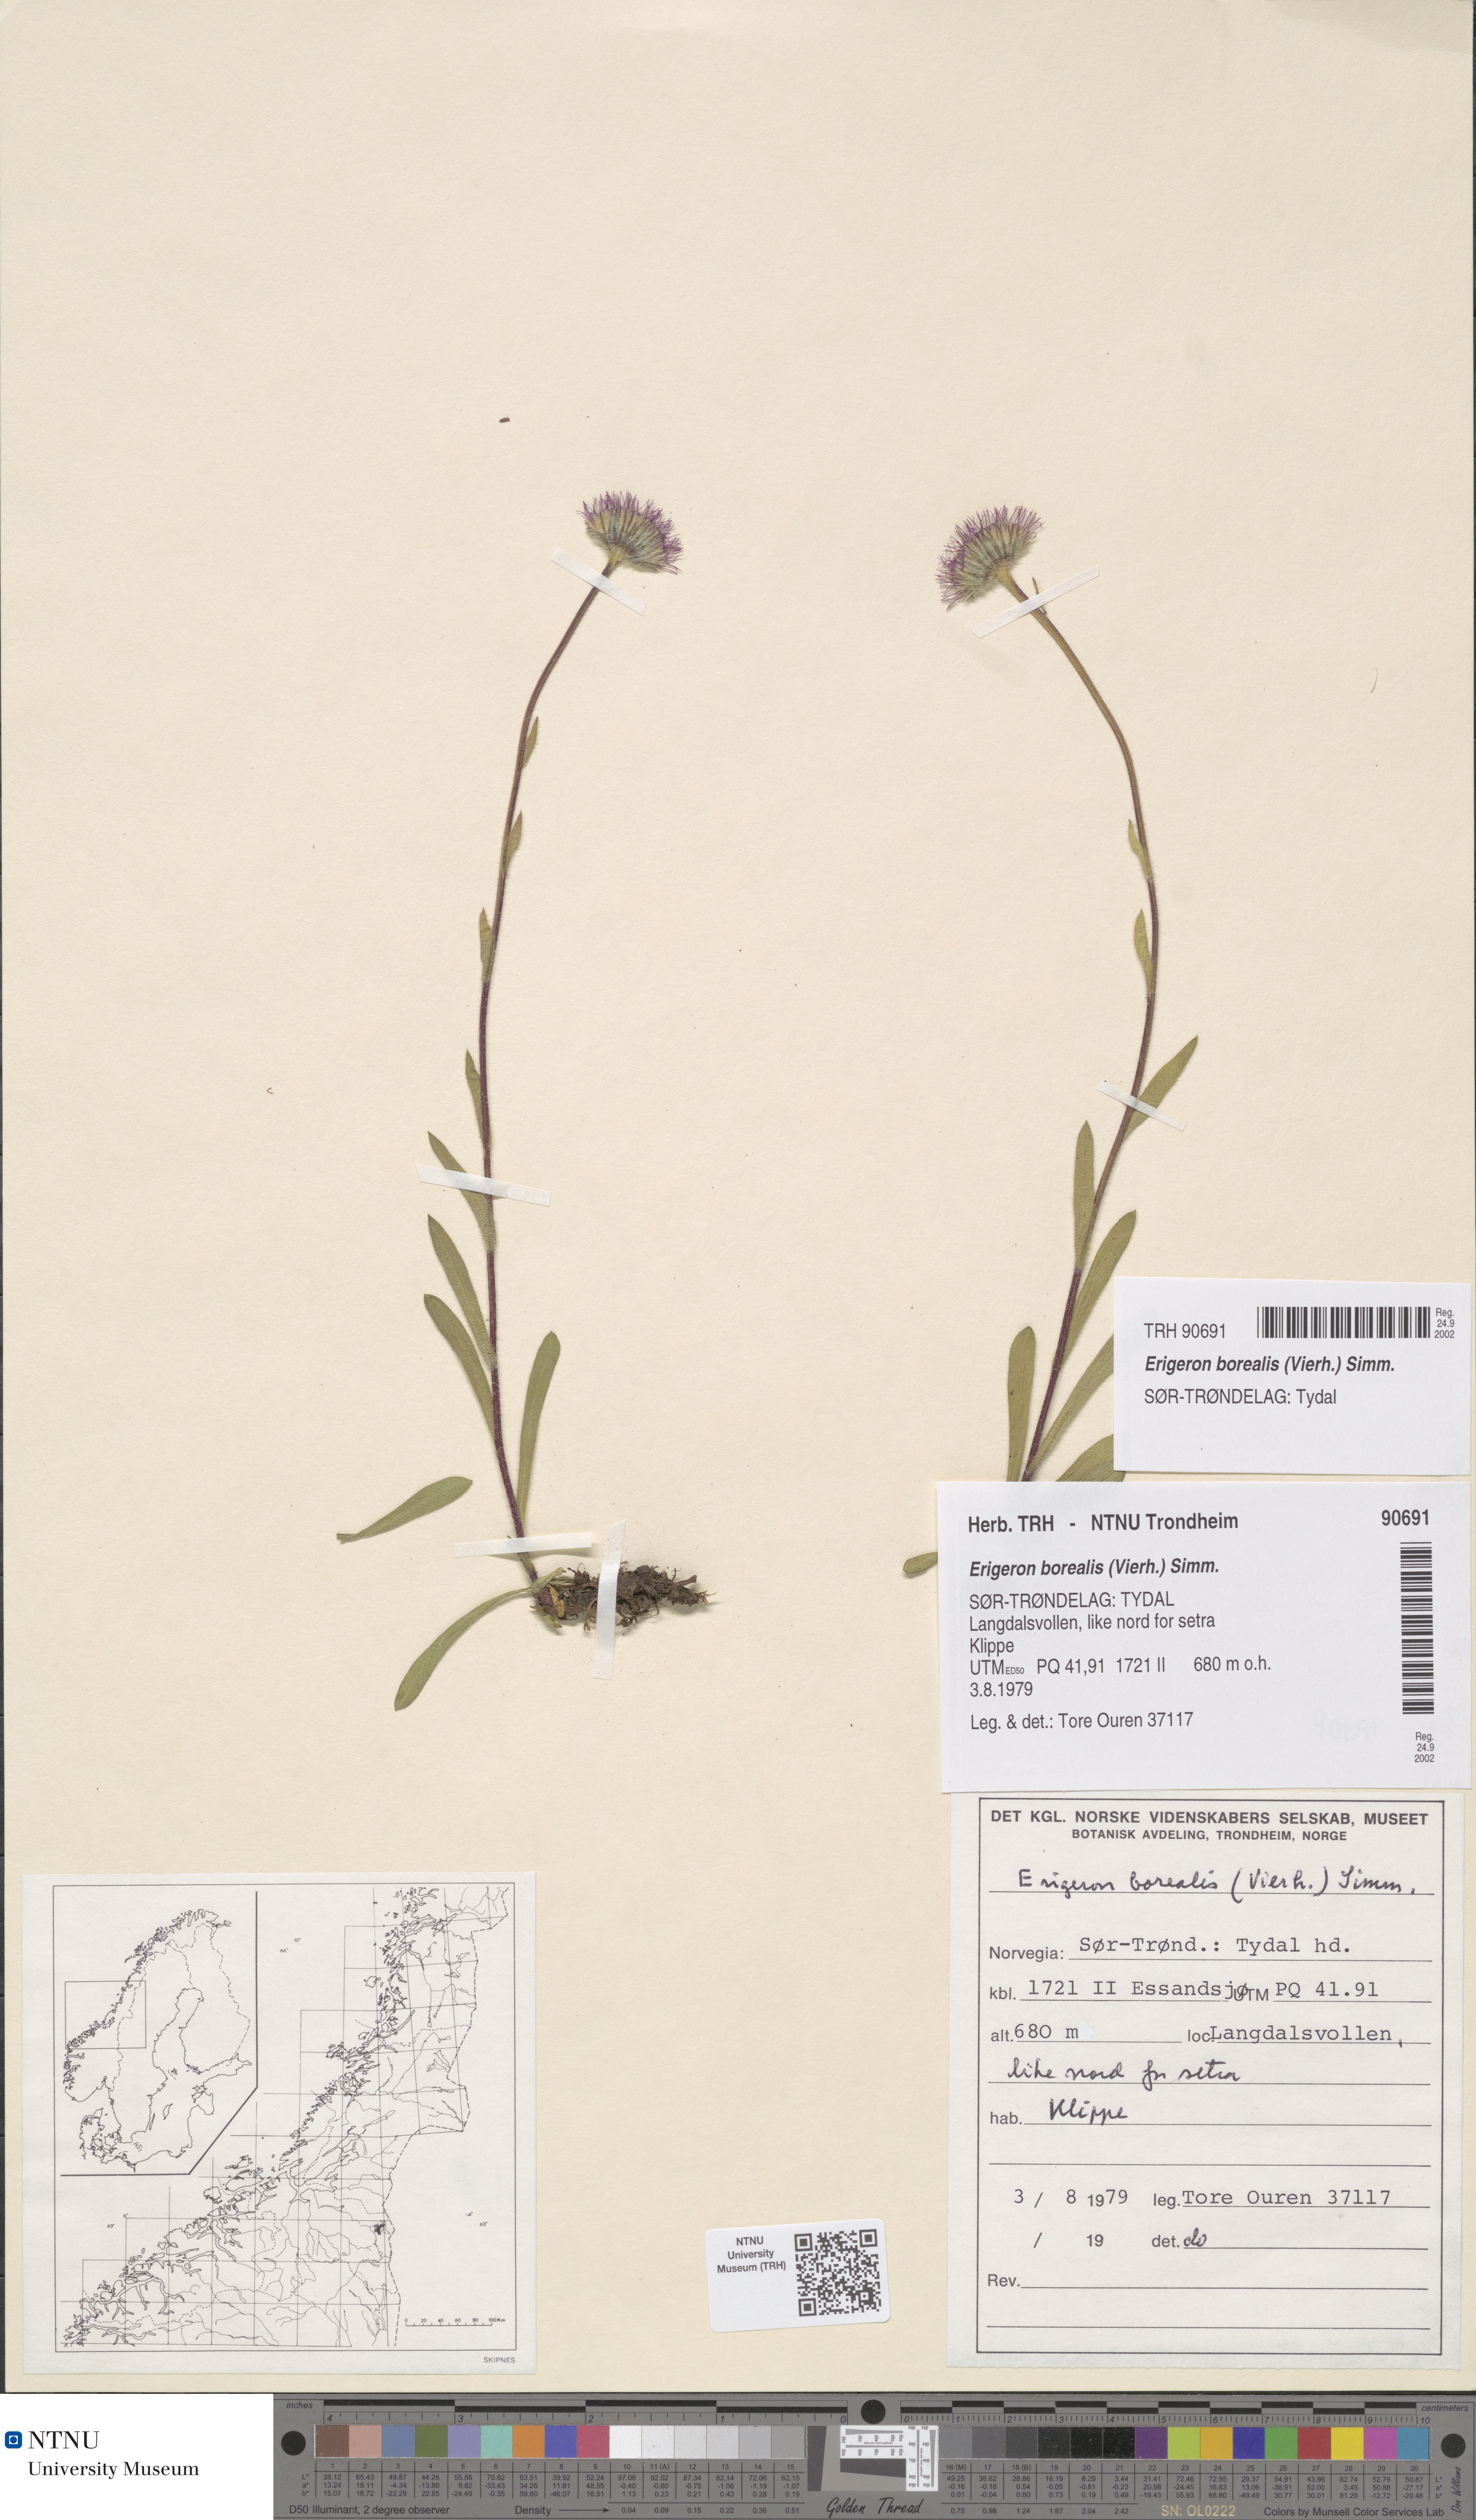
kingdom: Plantae
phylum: Tracheophyta
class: Magnoliopsida
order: Asterales
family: Asteraceae
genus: Erigeron
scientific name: Erigeron borealis
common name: Alpine fleabane
